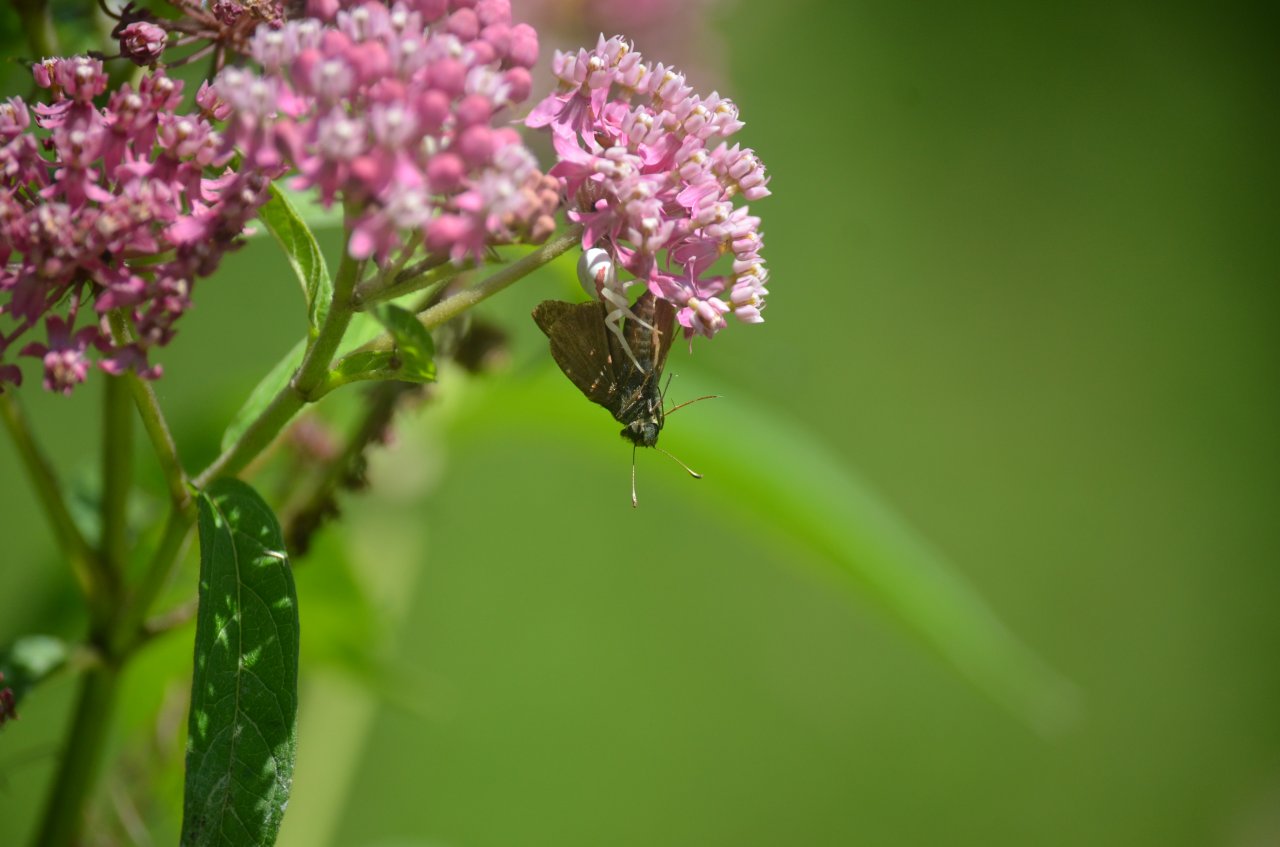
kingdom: Animalia
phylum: Arthropoda
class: Insecta
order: Lepidoptera
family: Hesperiidae
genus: Euphyes
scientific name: Euphyes vestris
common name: Dun Skipper
